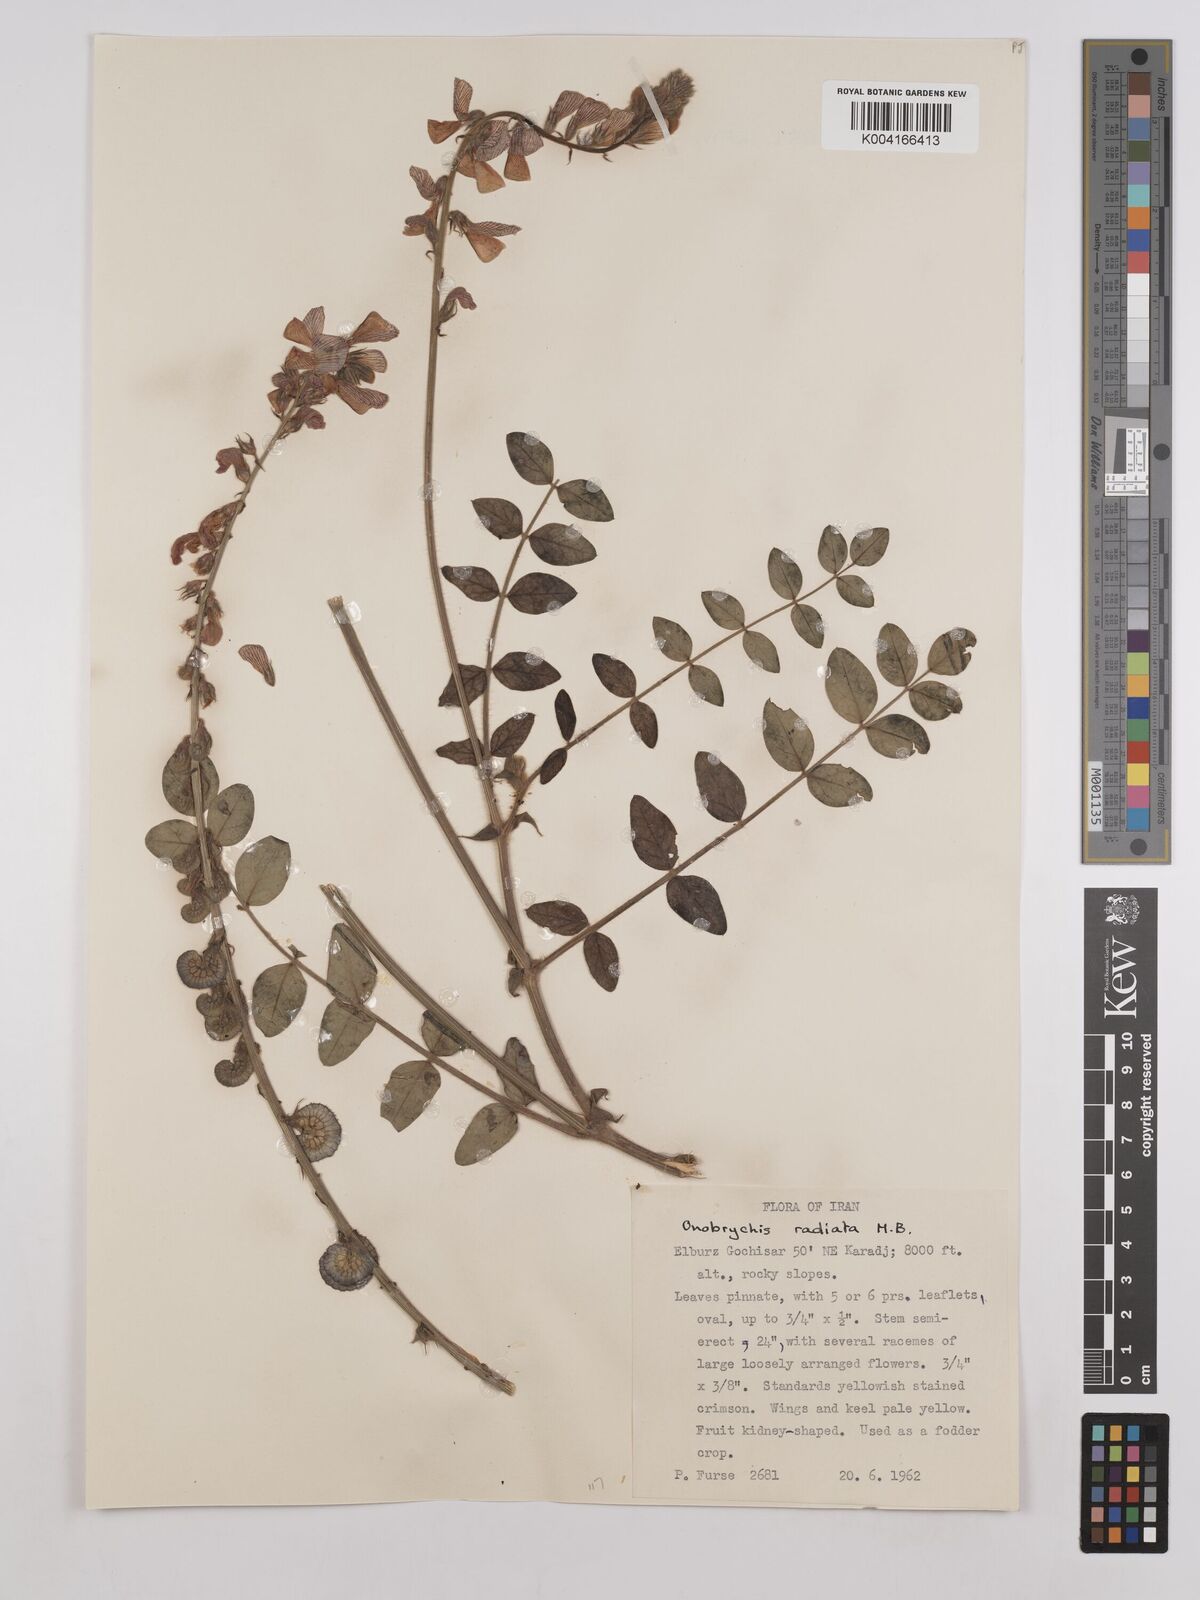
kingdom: Plantae
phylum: Tracheophyta
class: Magnoliopsida
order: Fabales
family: Fabaceae
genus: Onobrychis
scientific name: Onobrychis
